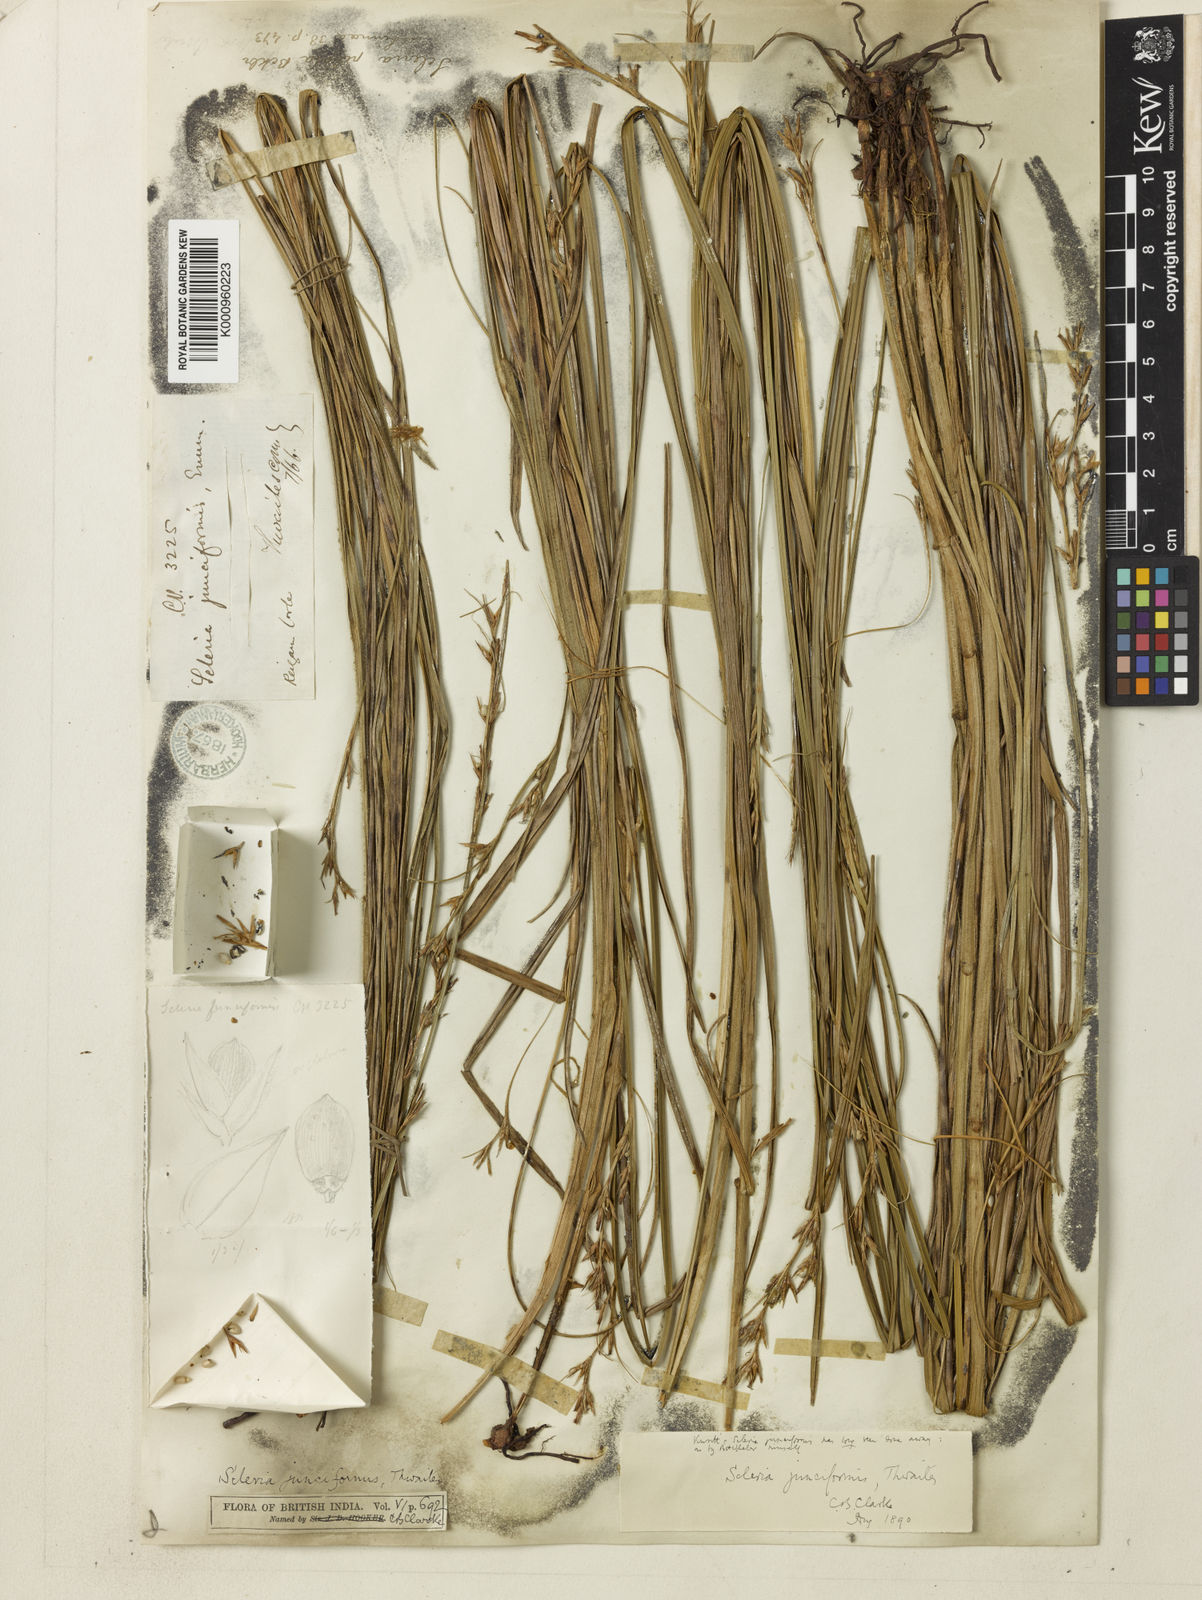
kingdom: Plantae
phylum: Tracheophyta
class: Liliopsida
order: Poales
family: Cyperaceae
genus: Scleria
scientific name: Scleria pilosa
